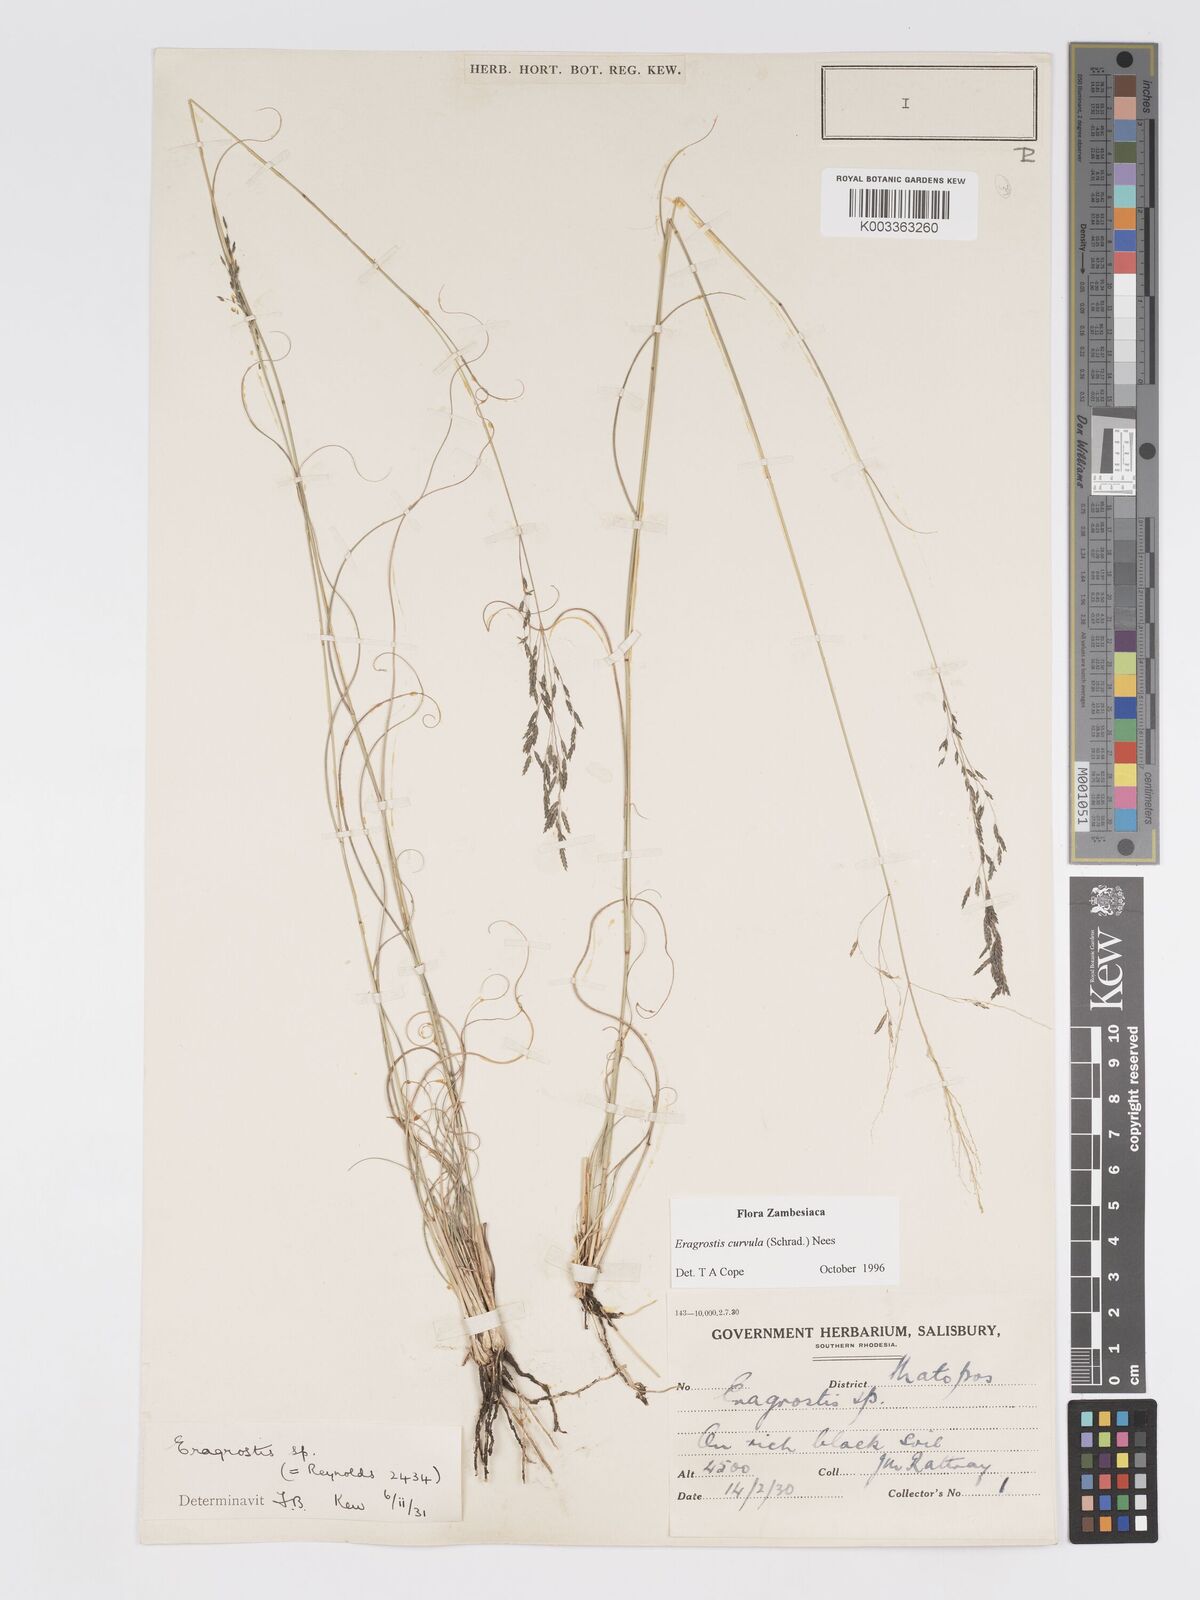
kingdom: Plantae
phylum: Tracheophyta
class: Liliopsida
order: Poales
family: Poaceae
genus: Eragrostis
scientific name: Eragrostis curvula
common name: African love-grass
